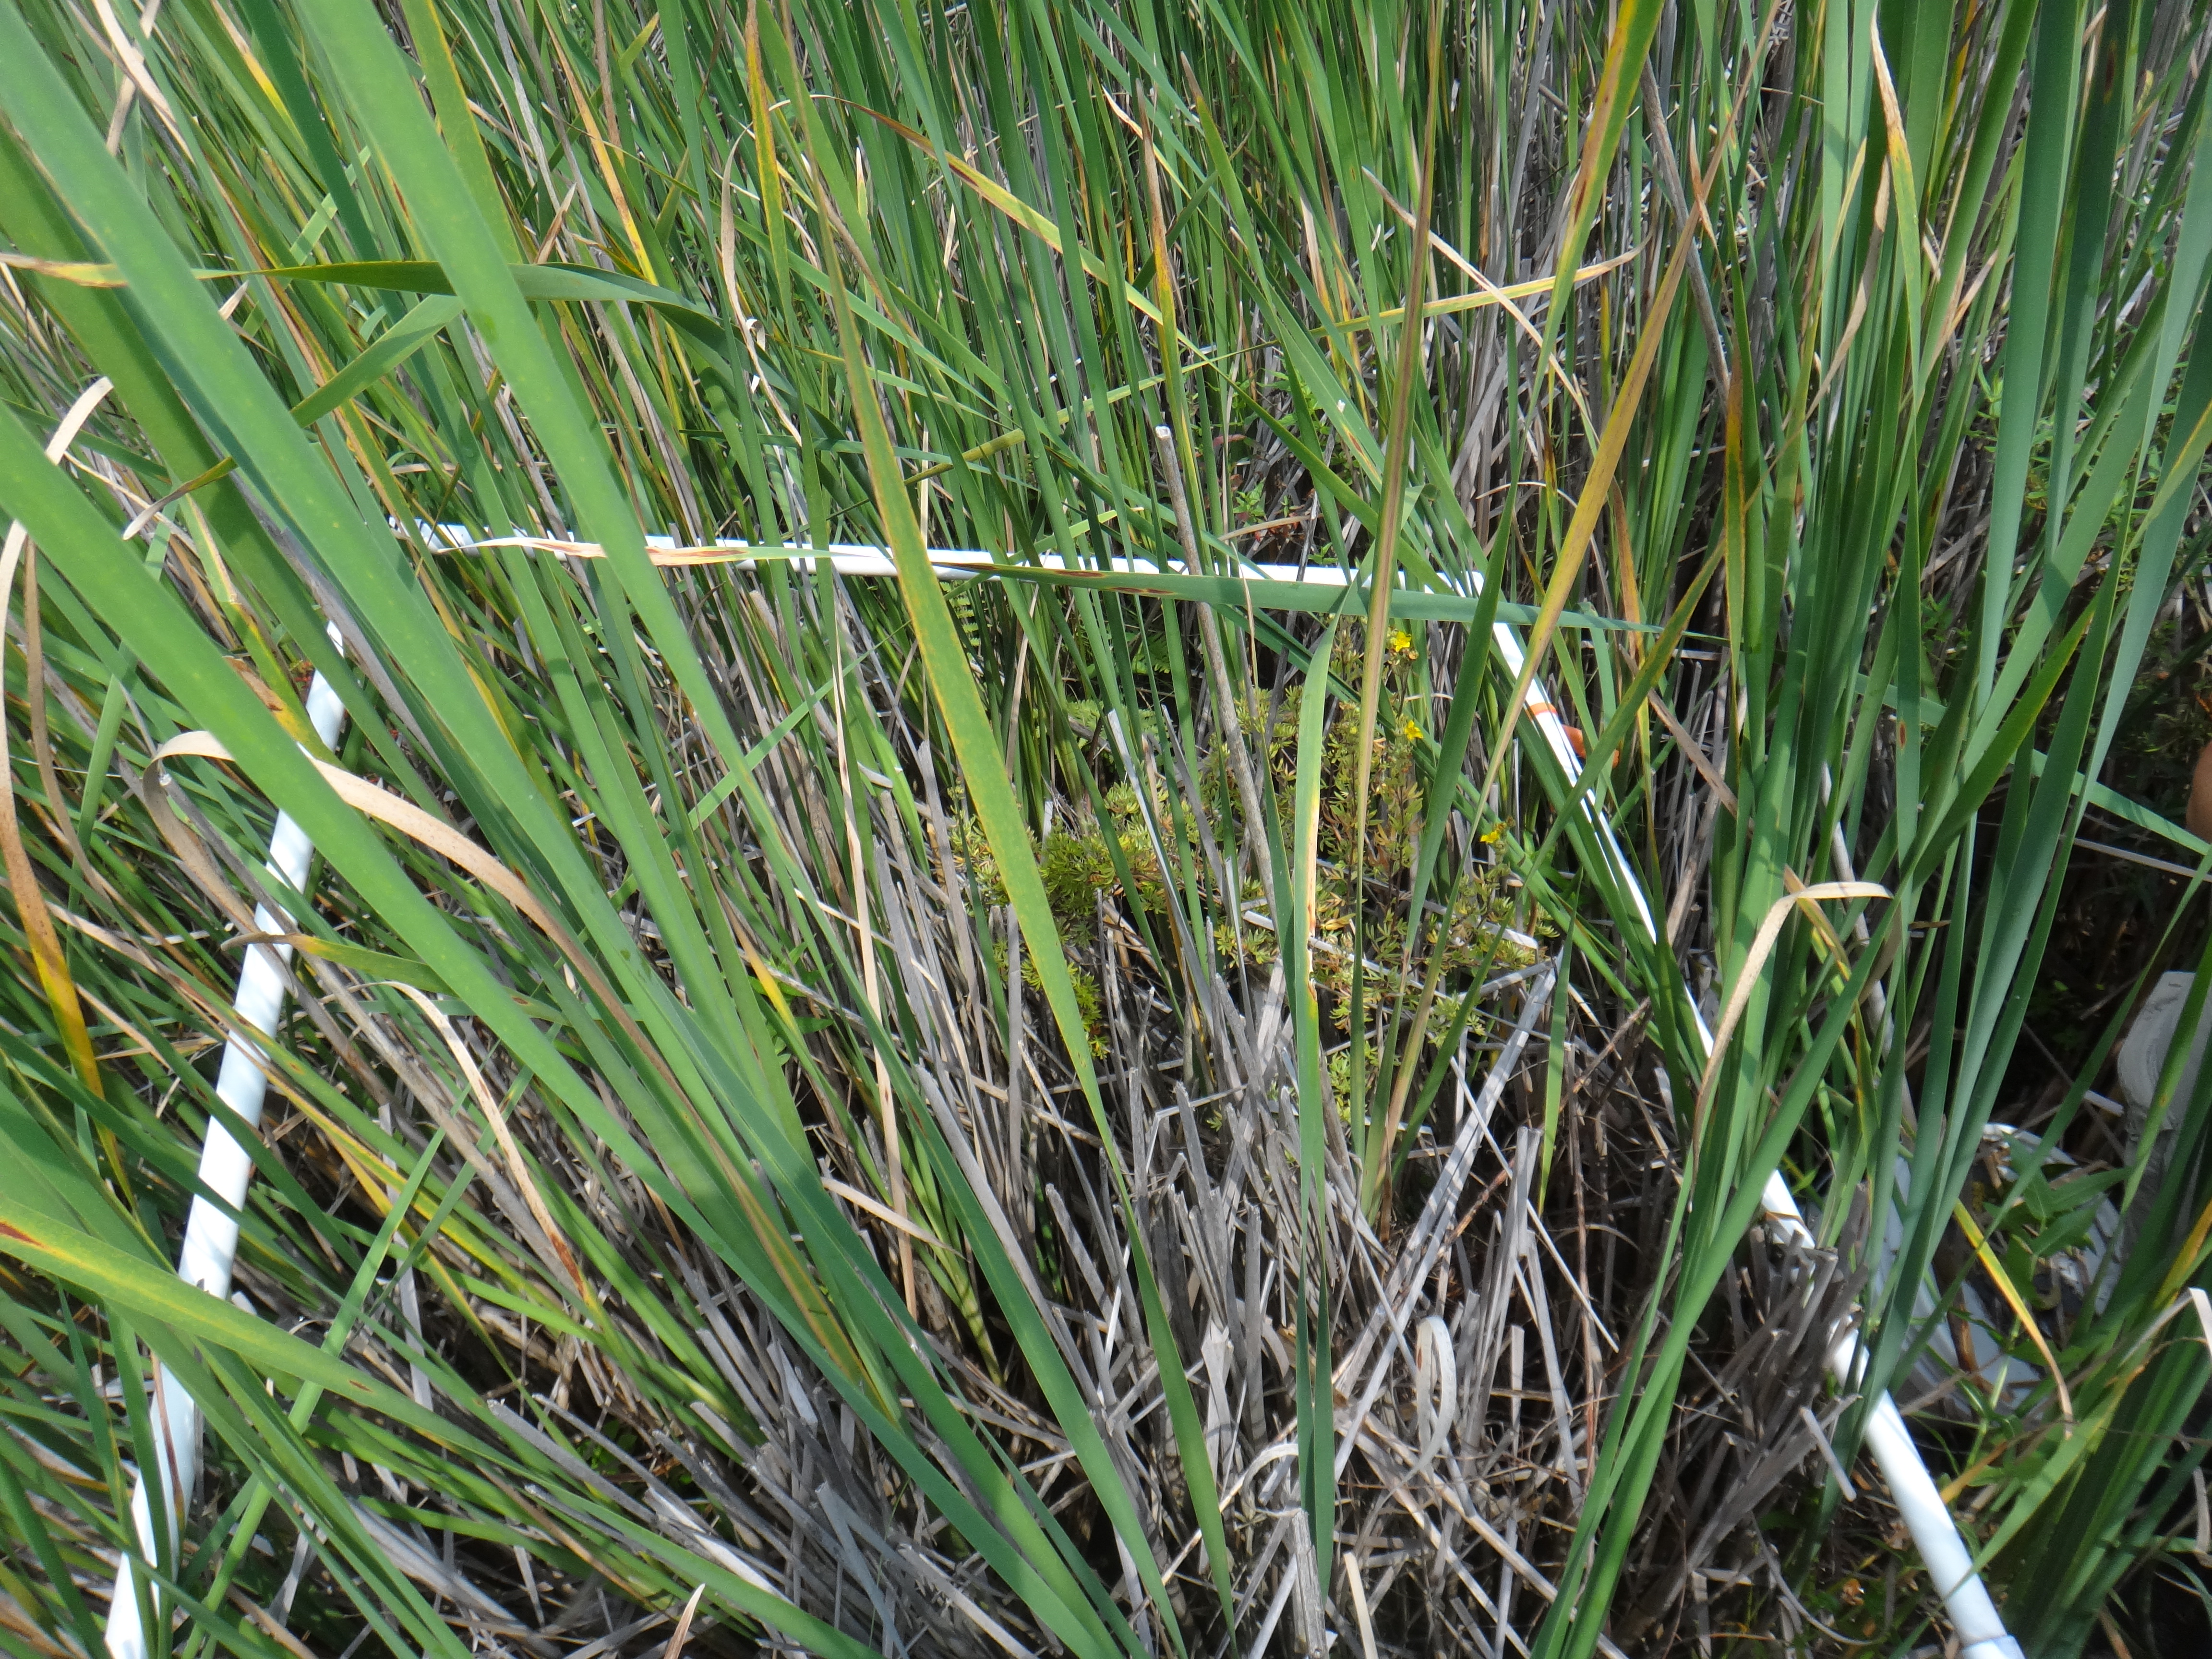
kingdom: Plantae
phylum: Tracheophyta
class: Liliopsida
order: Poales
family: Typhaceae
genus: Typha
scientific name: Typha angustifolia
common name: Lesser bulrush
